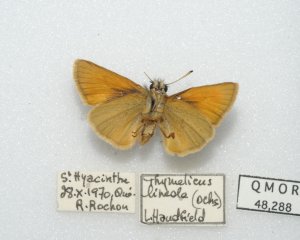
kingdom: Animalia
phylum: Arthropoda
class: Insecta
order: Lepidoptera
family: Hesperiidae
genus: Thymelicus
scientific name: Thymelicus lineola
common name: European Skipper
